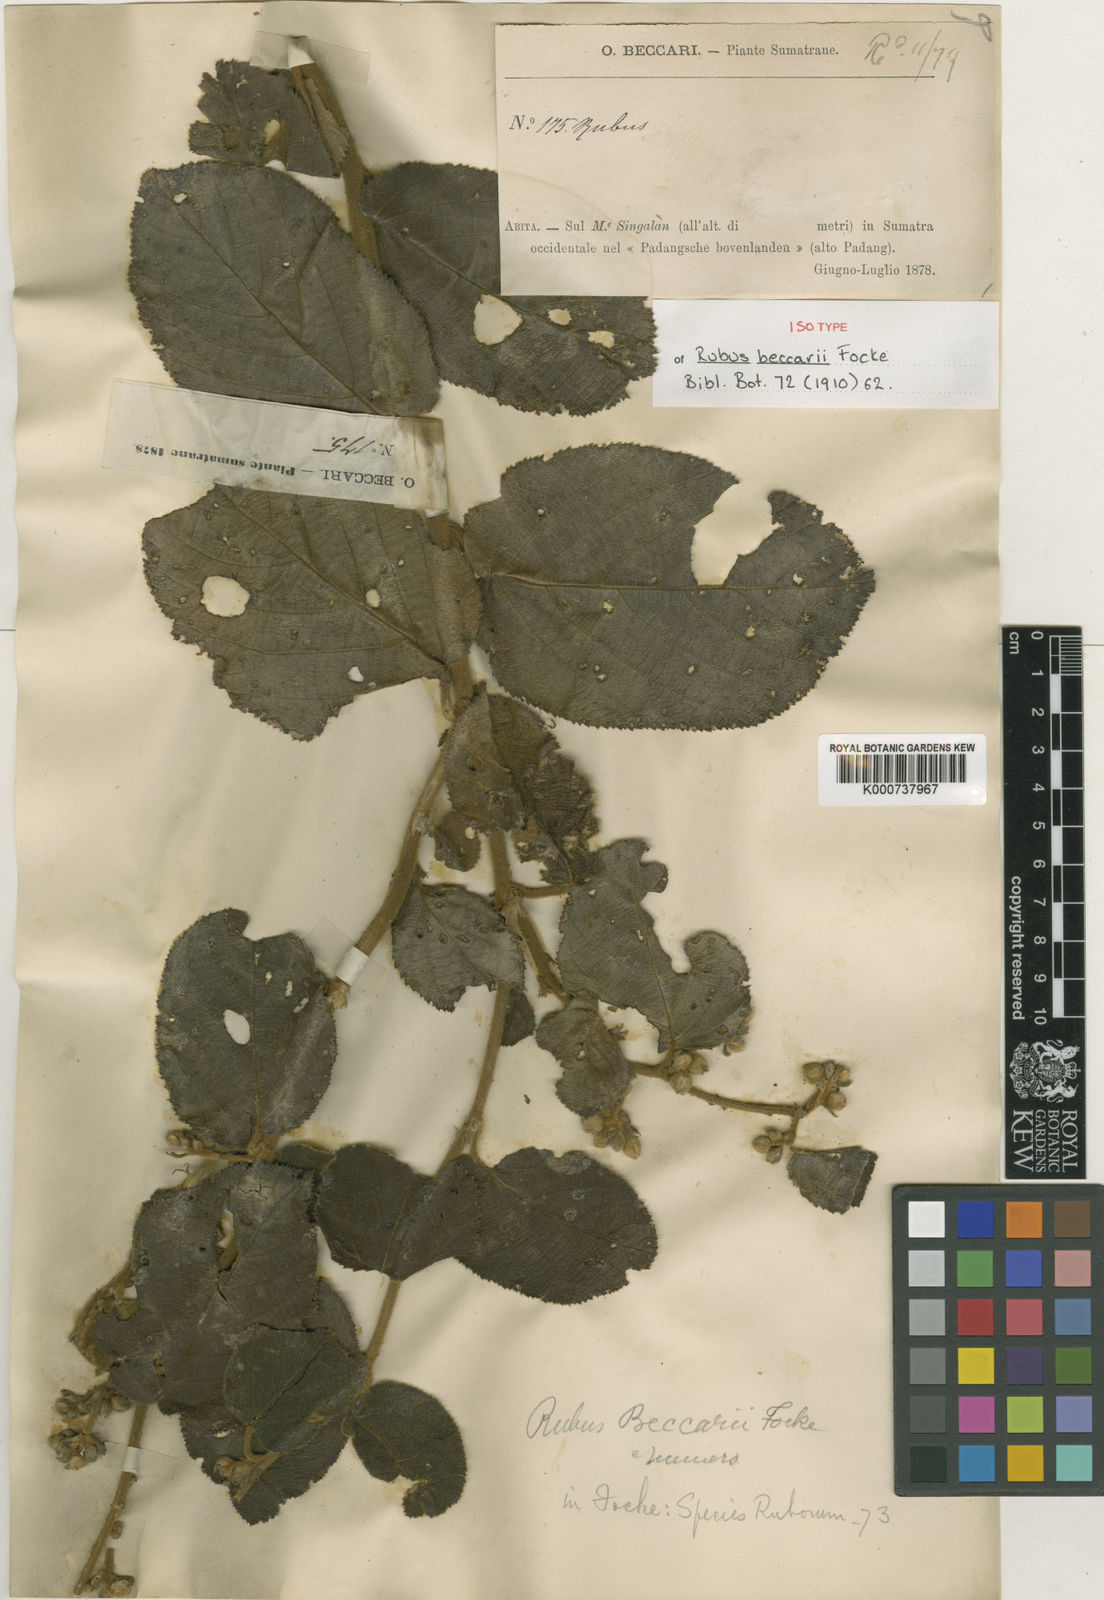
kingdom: Plantae
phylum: Tracheophyta
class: Magnoliopsida
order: Rosales
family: Rosaceae
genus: Rubus
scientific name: Rubus beccarii
